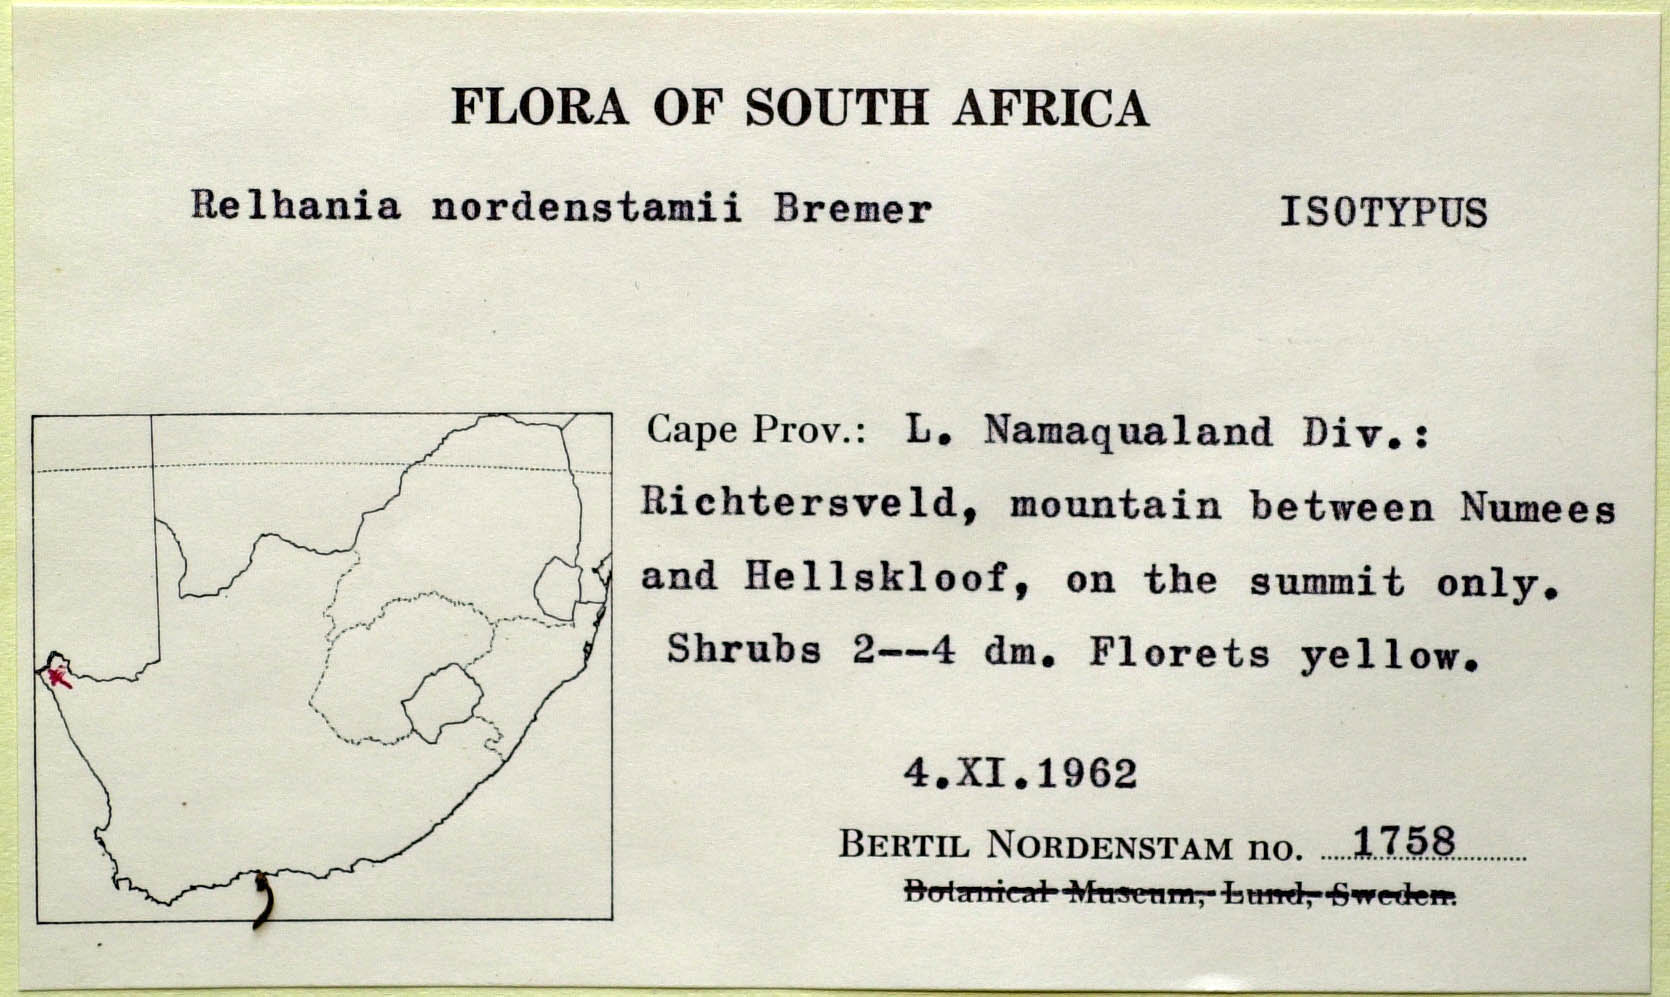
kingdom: Plantae
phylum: Tracheophyta
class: Magnoliopsida
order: Asterales
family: Asteraceae
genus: Oedera
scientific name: Oedera nordenstamii
